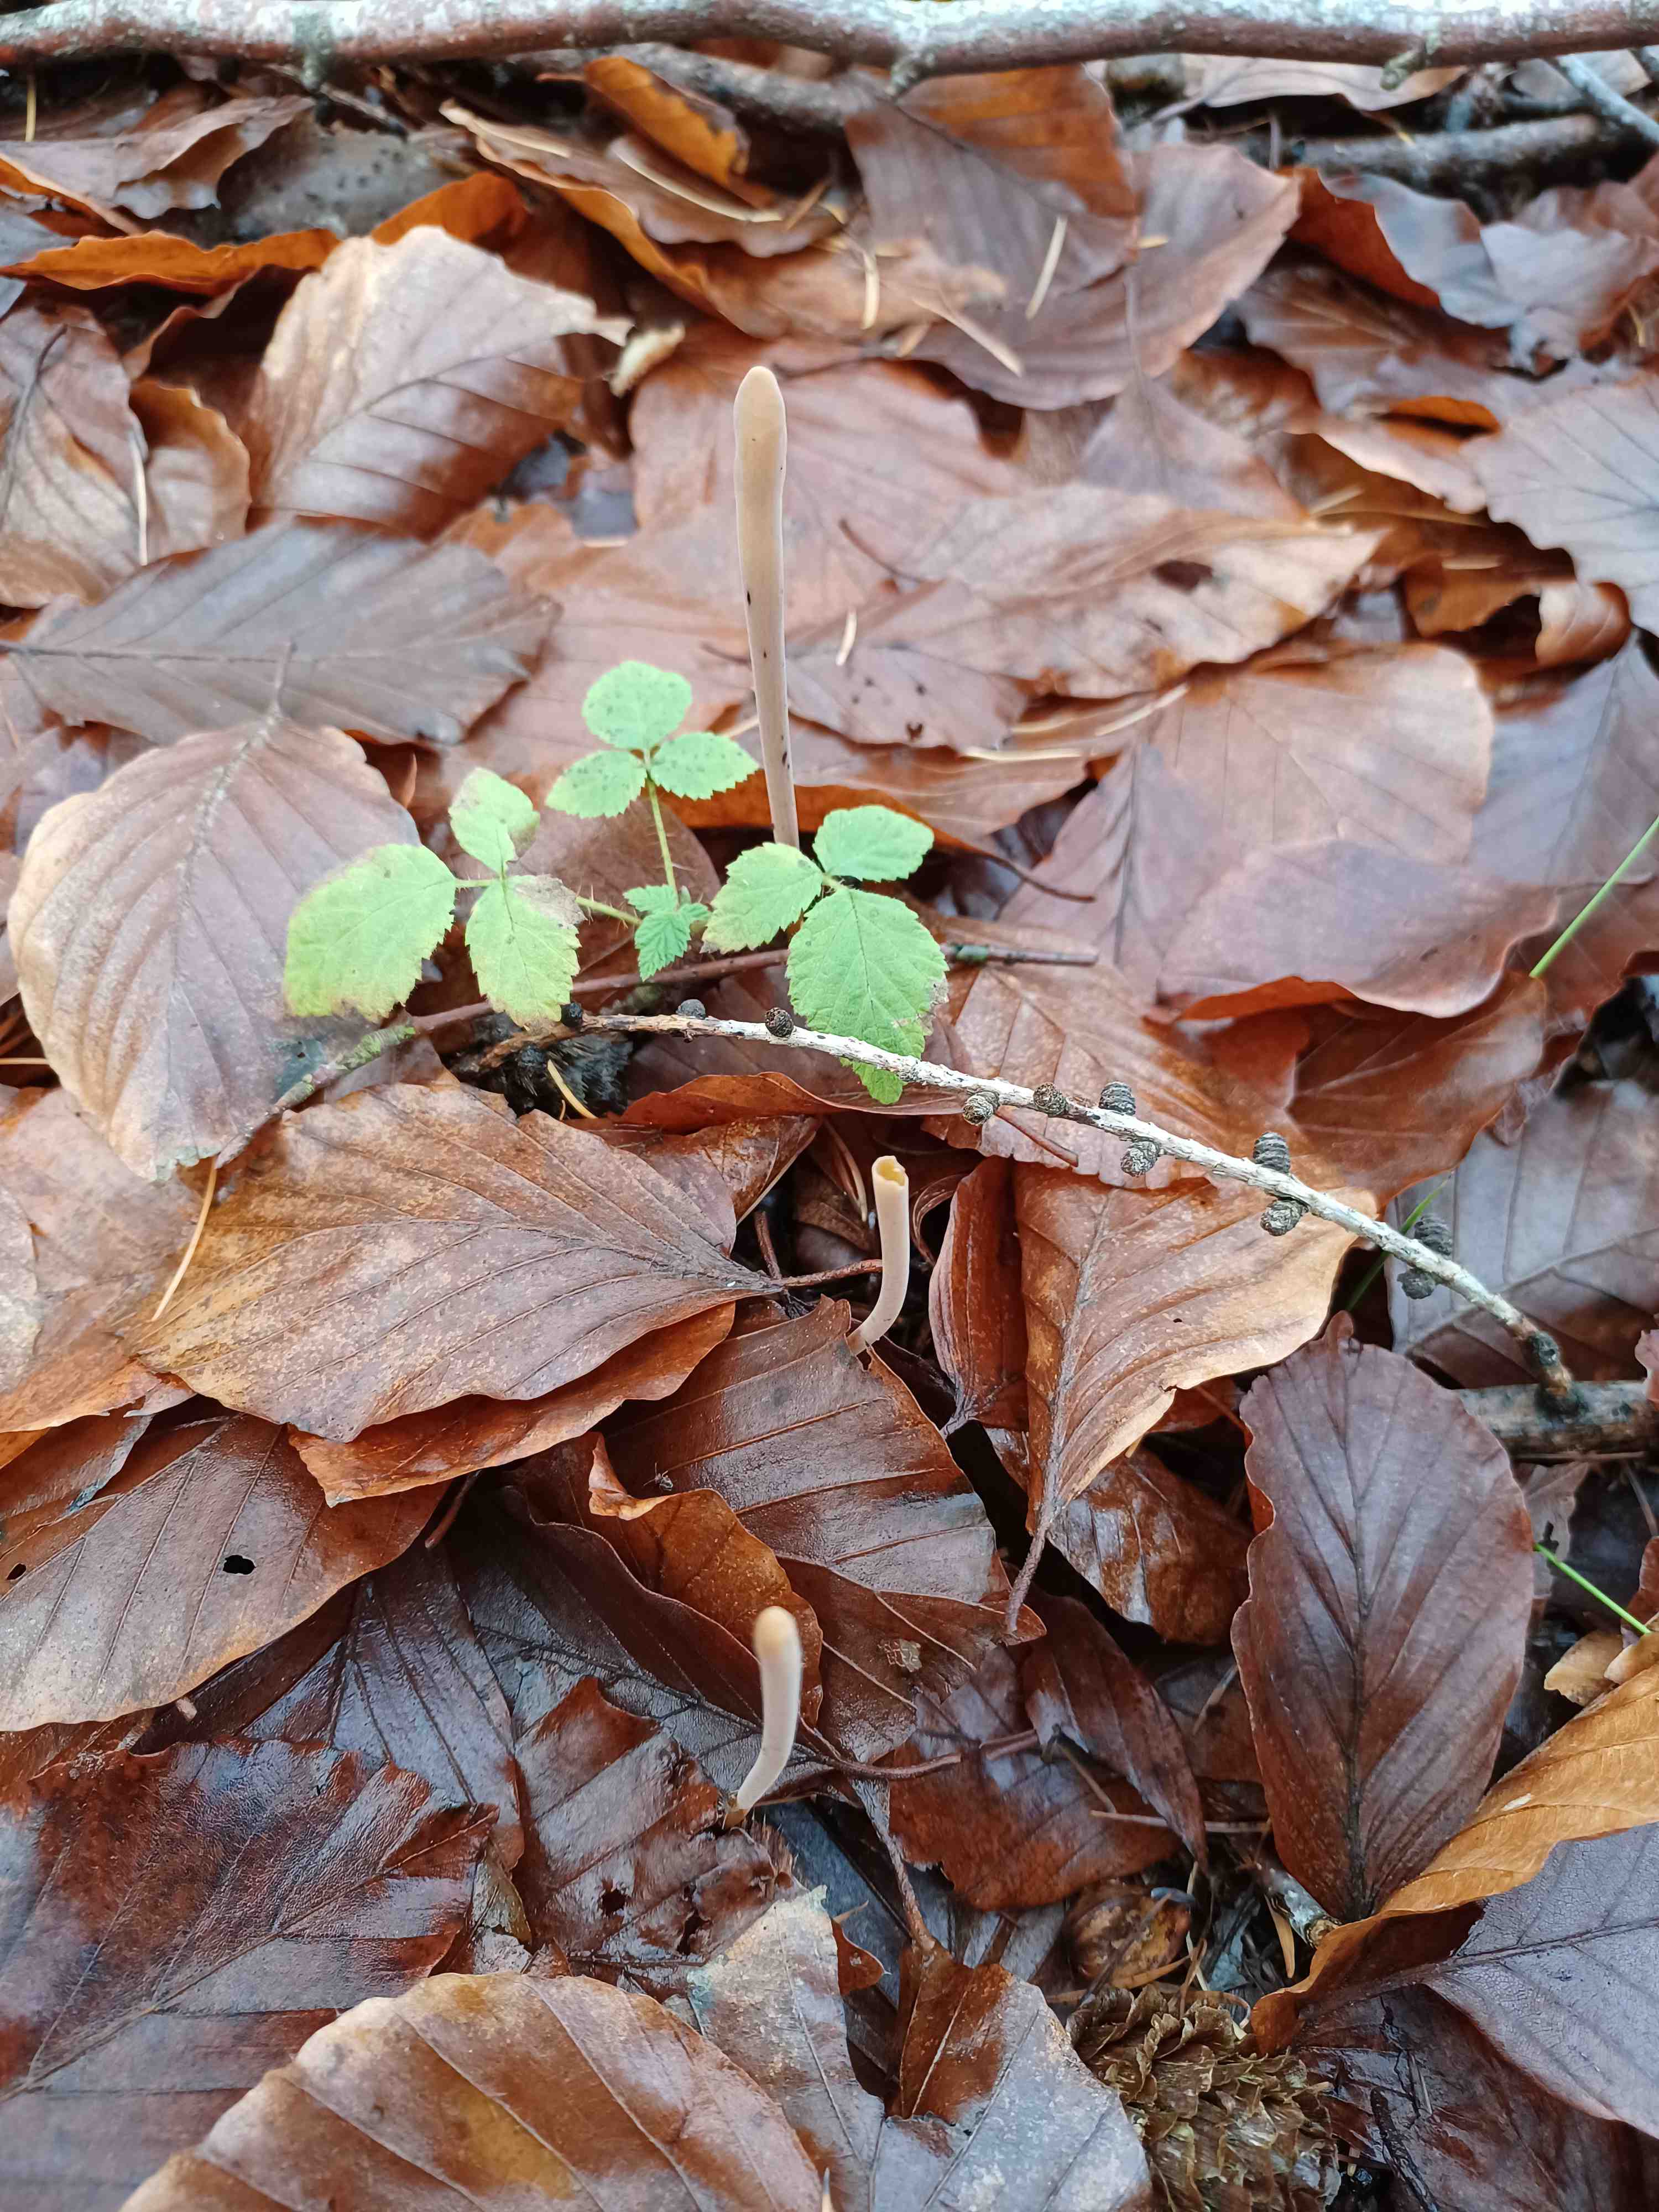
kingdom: Fungi
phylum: Basidiomycota
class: Agaricomycetes
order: Agaricales
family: Typhulaceae
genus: Typhula
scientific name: Typhula fistulosa
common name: pibet rørkølle
